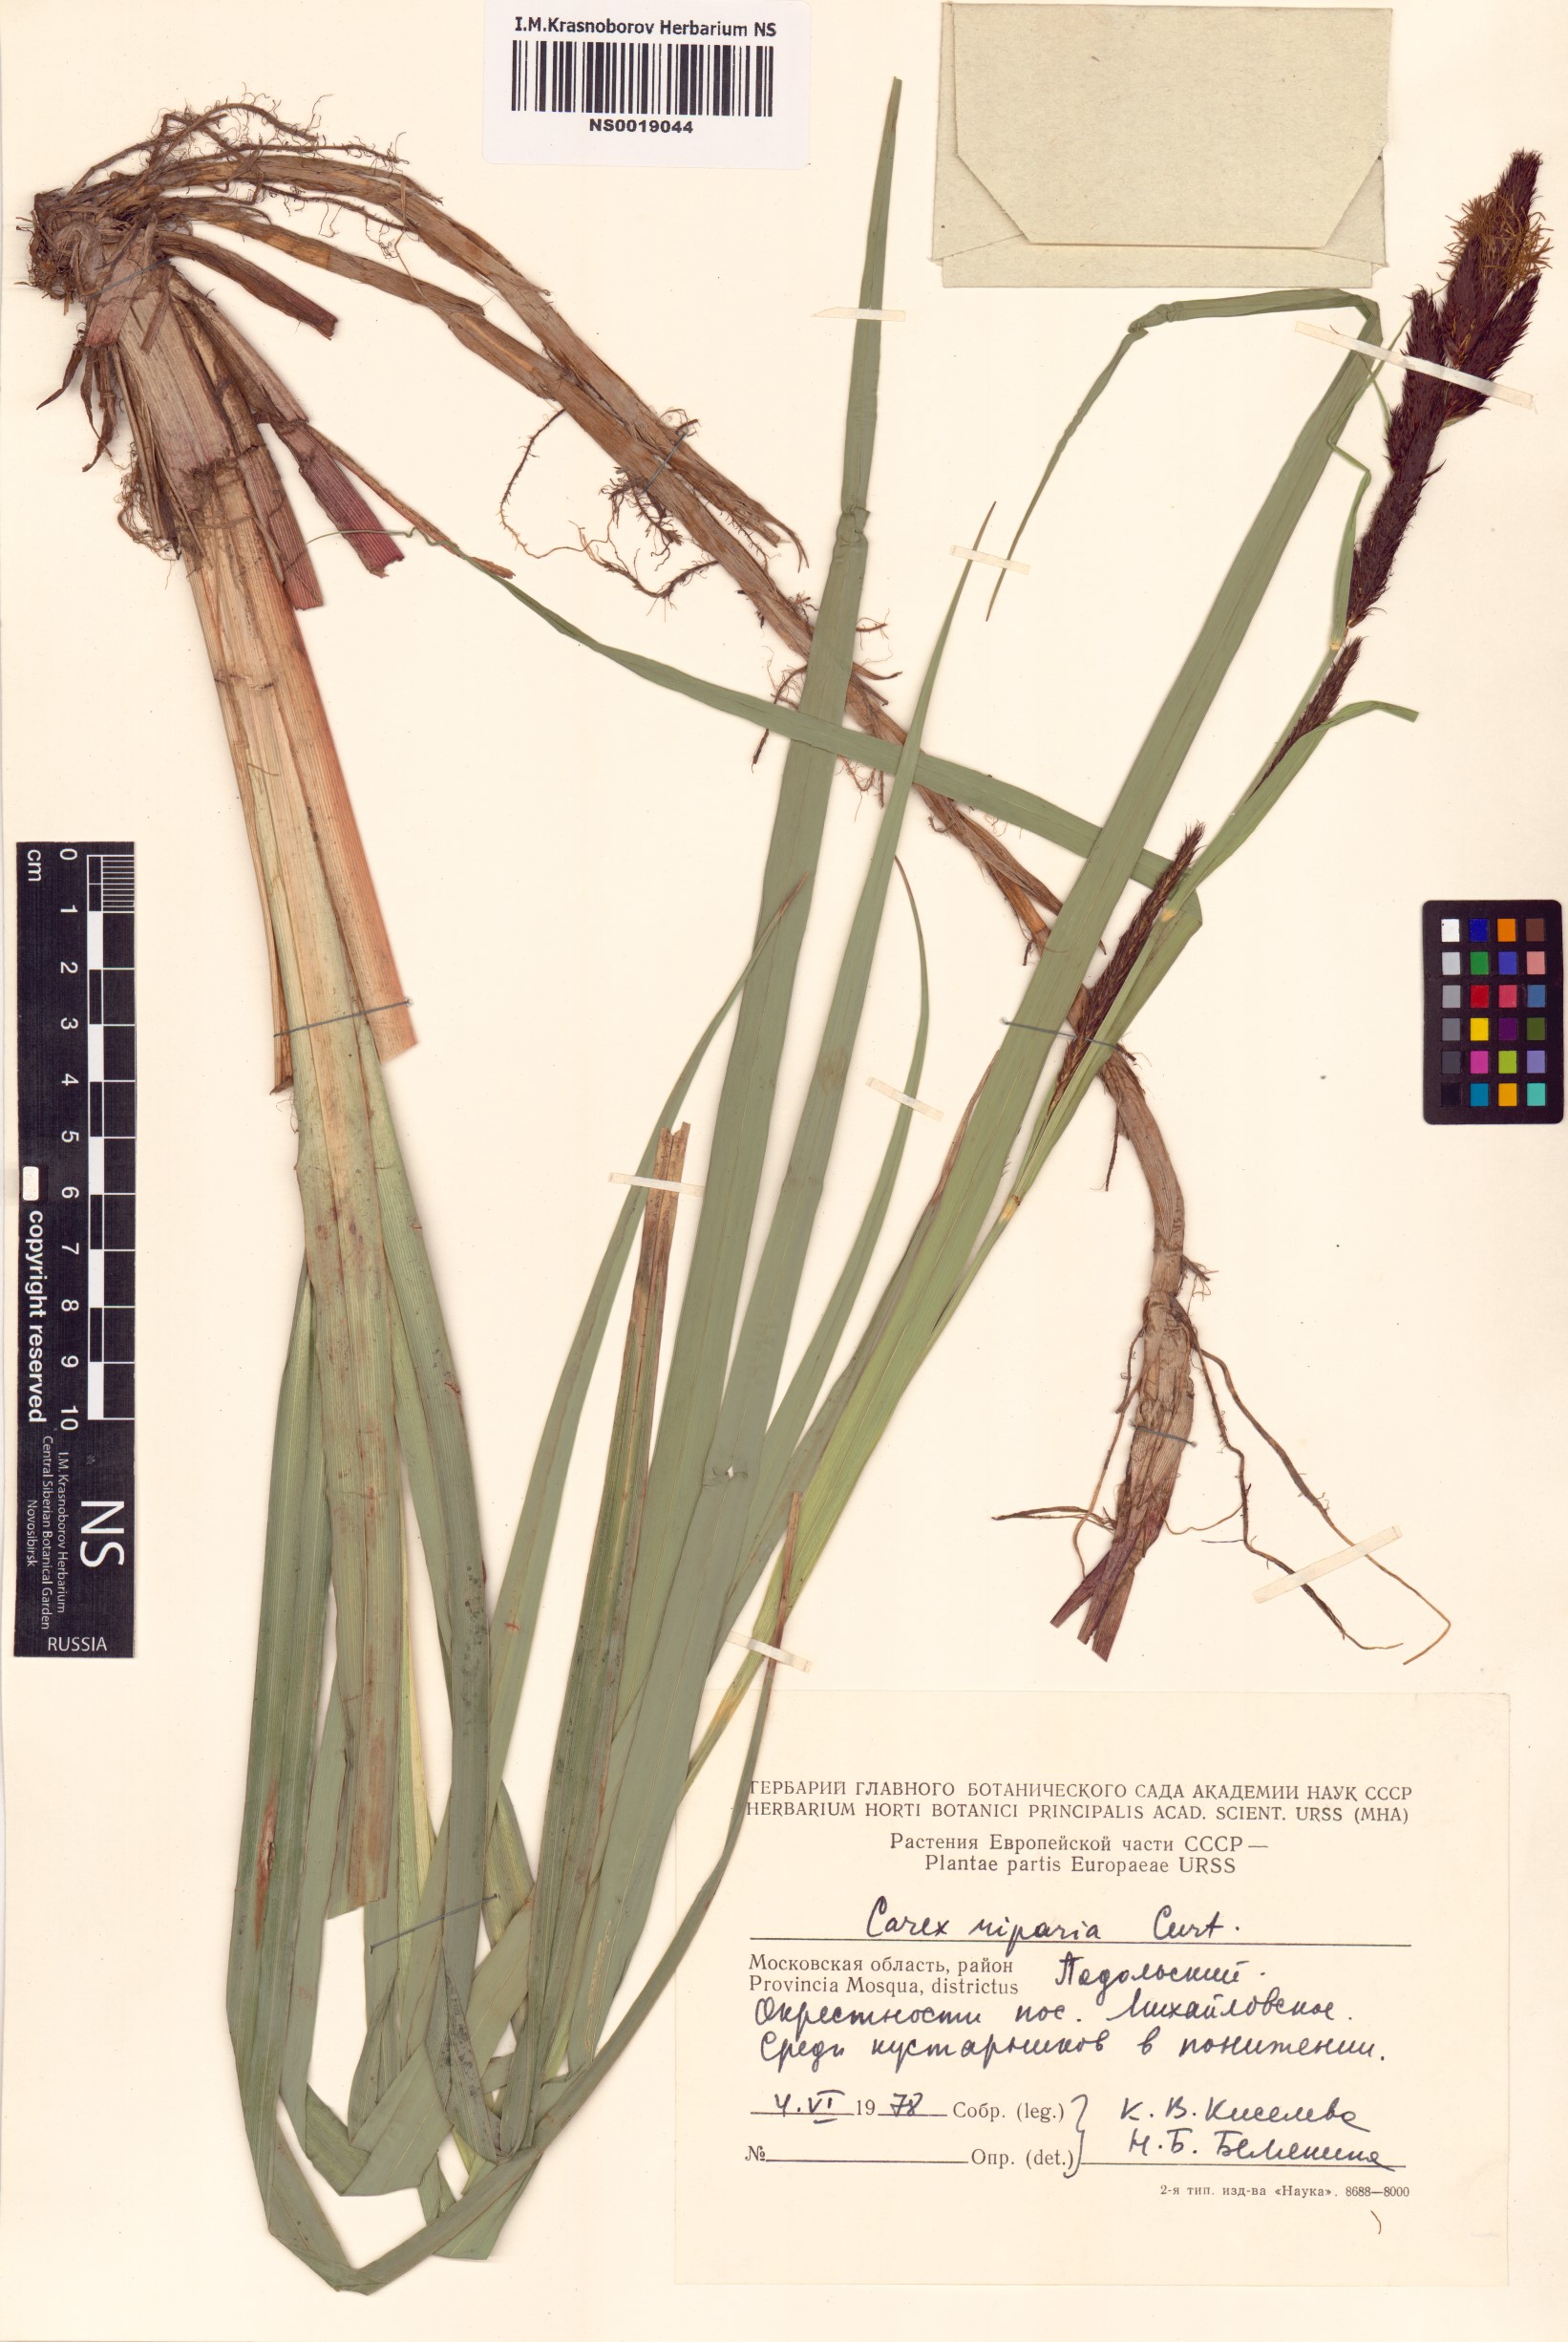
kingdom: Plantae
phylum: Tracheophyta
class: Liliopsida
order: Poales
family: Cyperaceae
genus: Carex
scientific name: Carex riparia
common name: Greater pond-sedge
